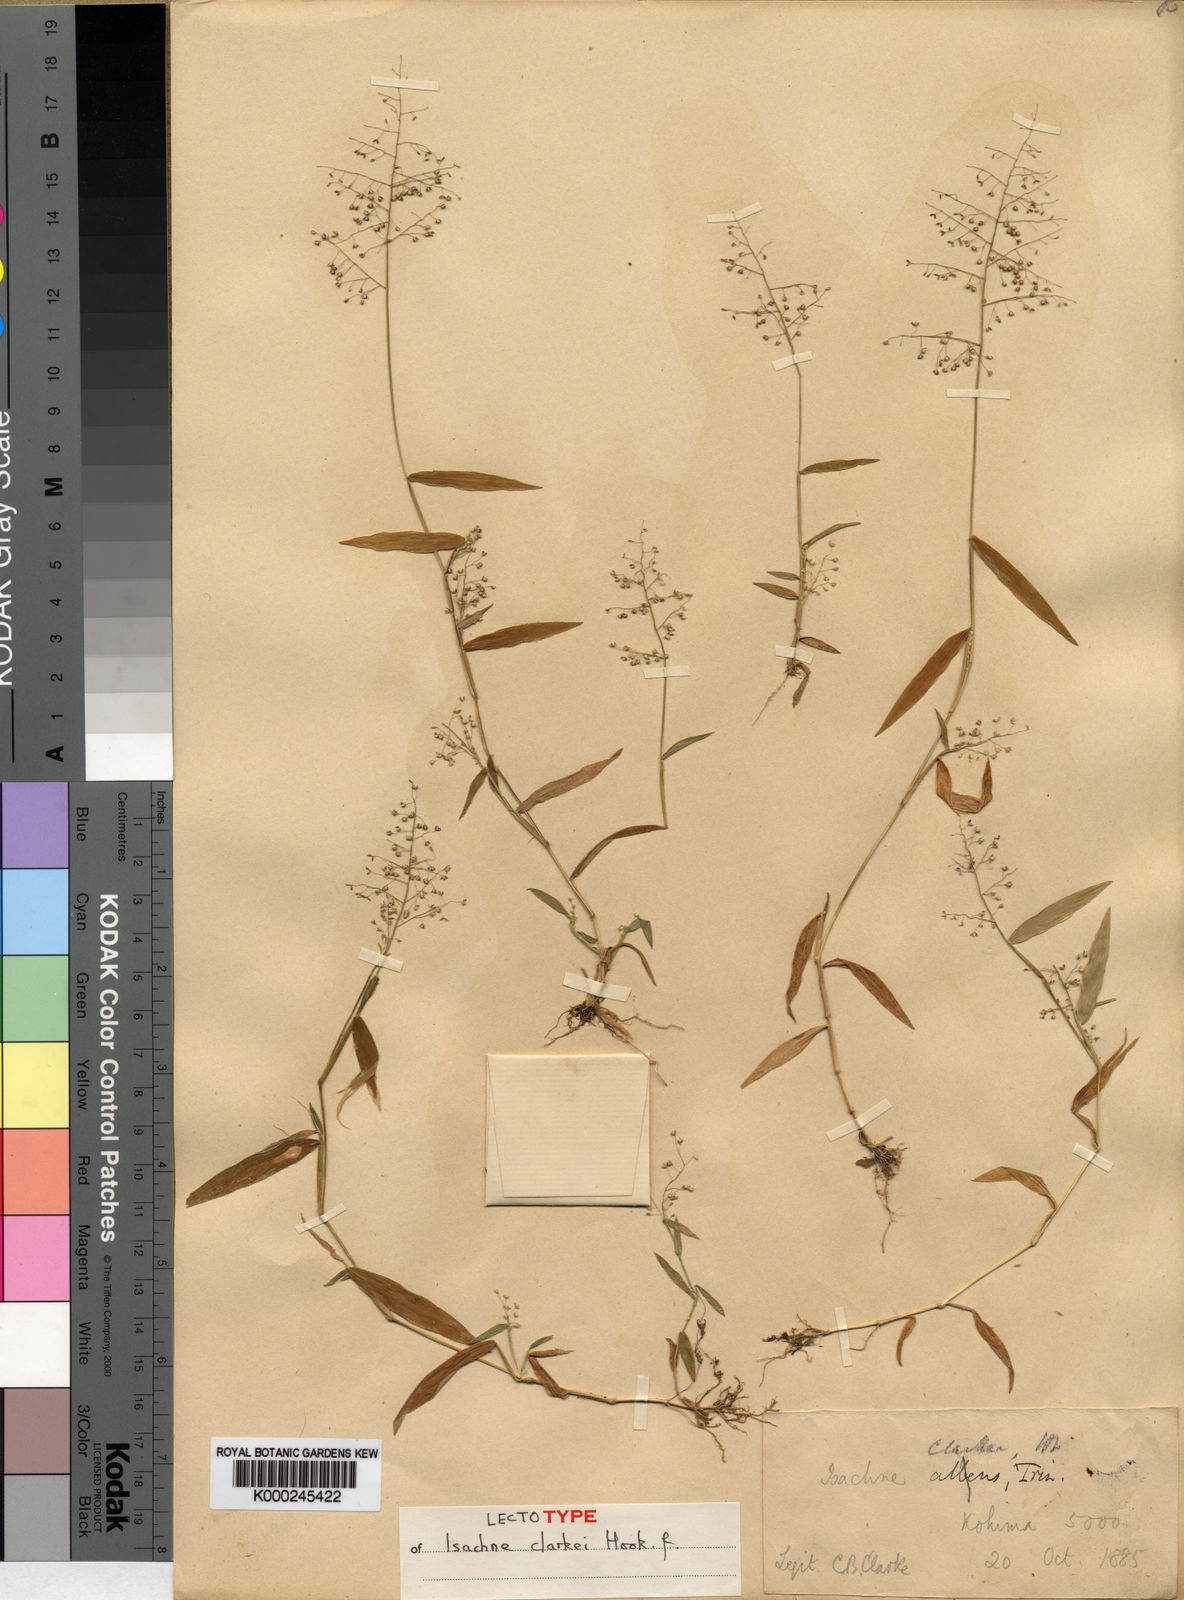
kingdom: Plantae
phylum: Tracheophyta
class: Liliopsida
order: Poales
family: Poaceae
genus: Isachne
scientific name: Isachne clarkei
